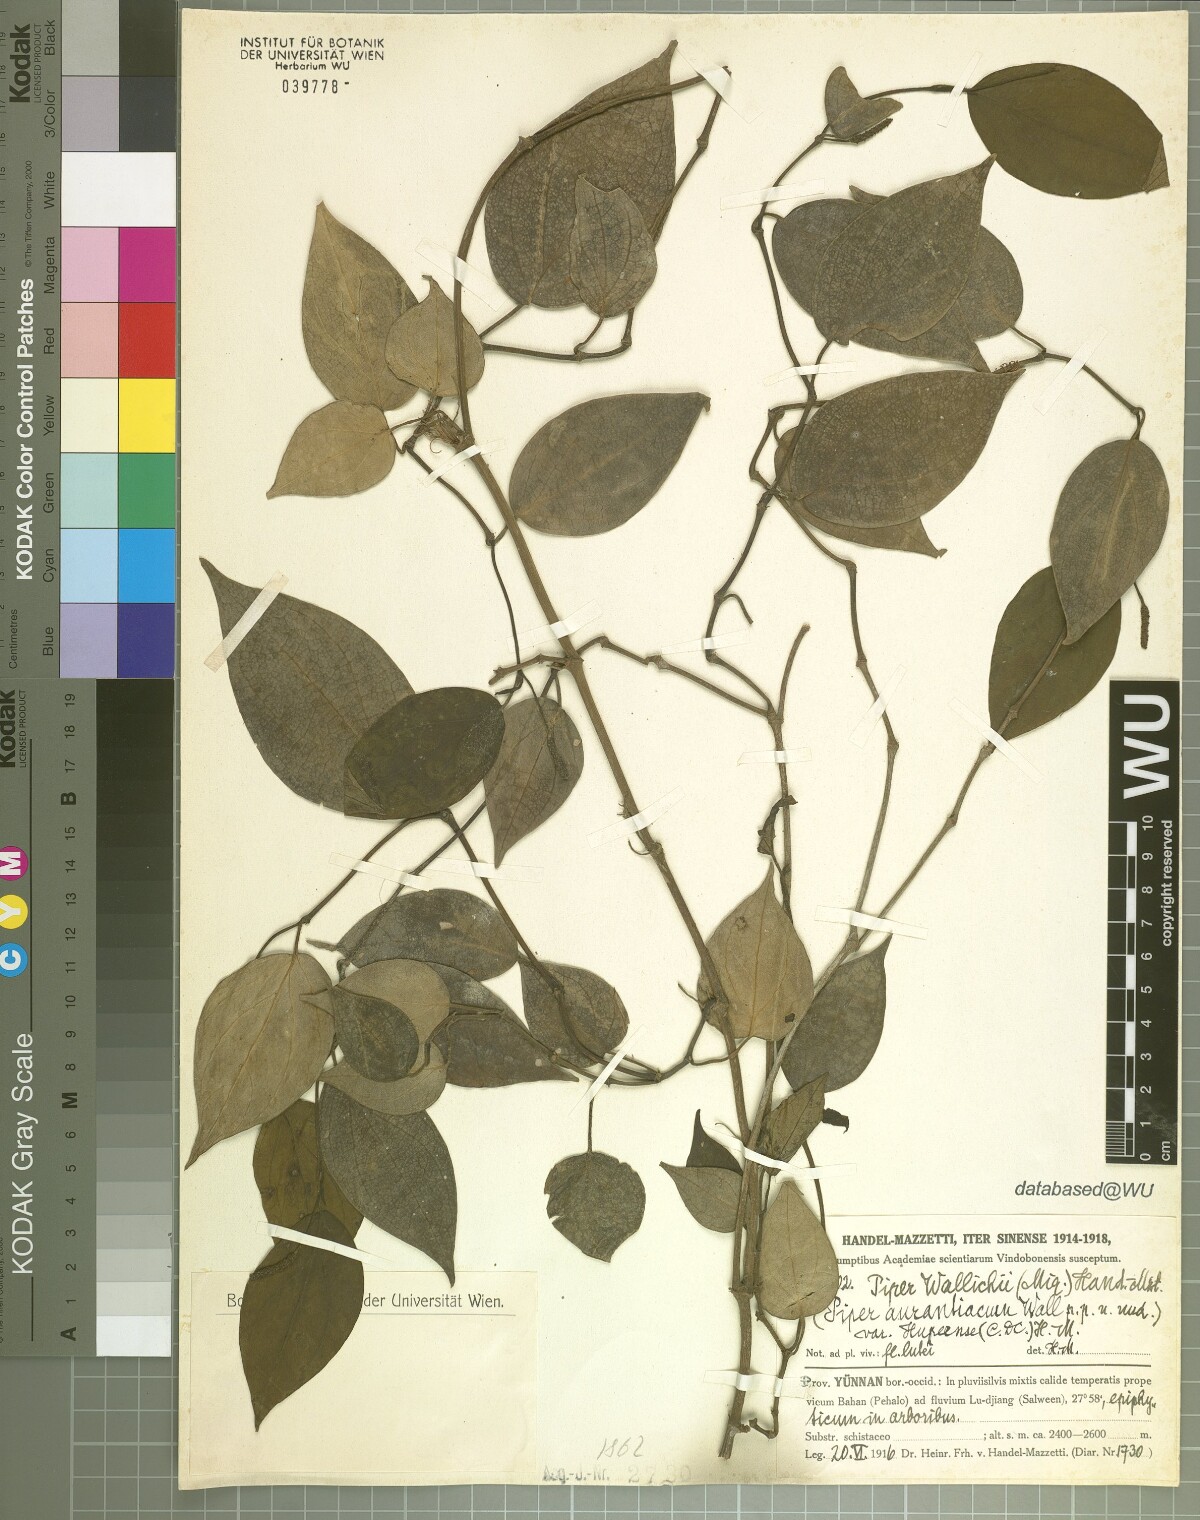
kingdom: Plantae
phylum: Tracheophyta
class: Magnoliopsida
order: Piperales
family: Piperaceae
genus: Piper
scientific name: Piper wallichii
